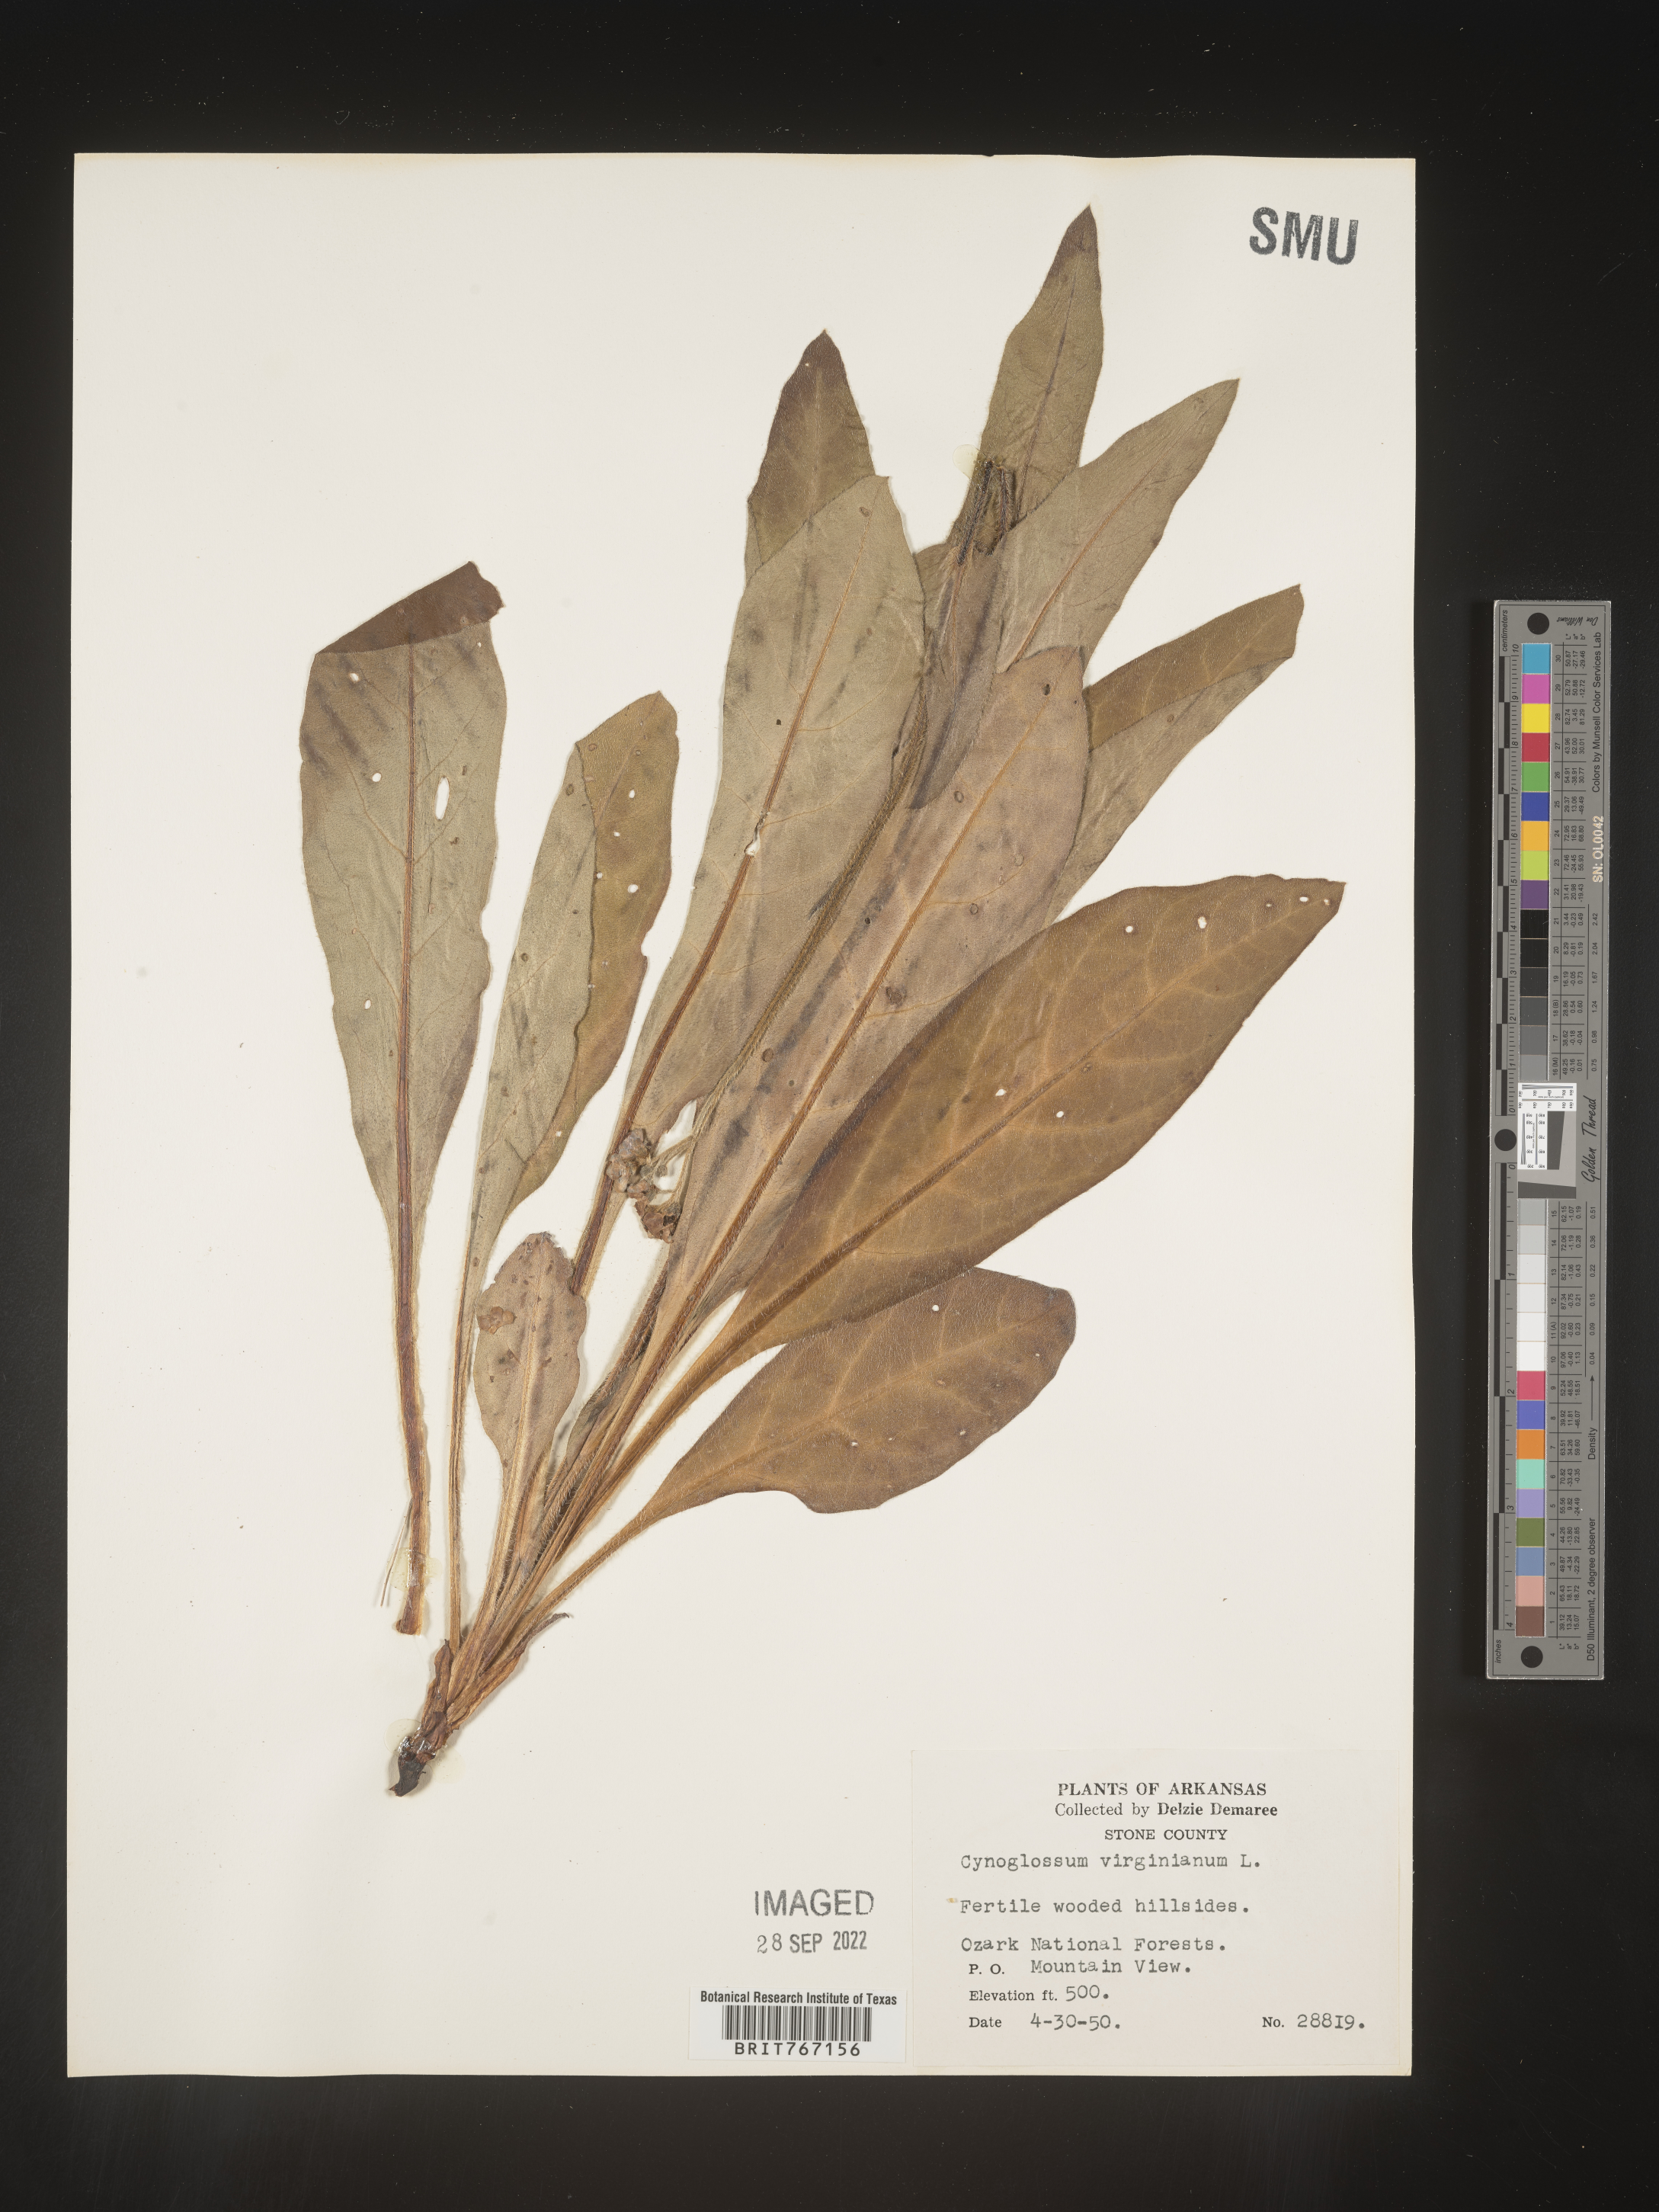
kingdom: Plantae
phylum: Tracheophyta
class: Magnoliopsida
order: Boraginales
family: Boraginaceae
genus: Andersonglossum
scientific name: Andersonglossum virginianum
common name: Wild comfrey
